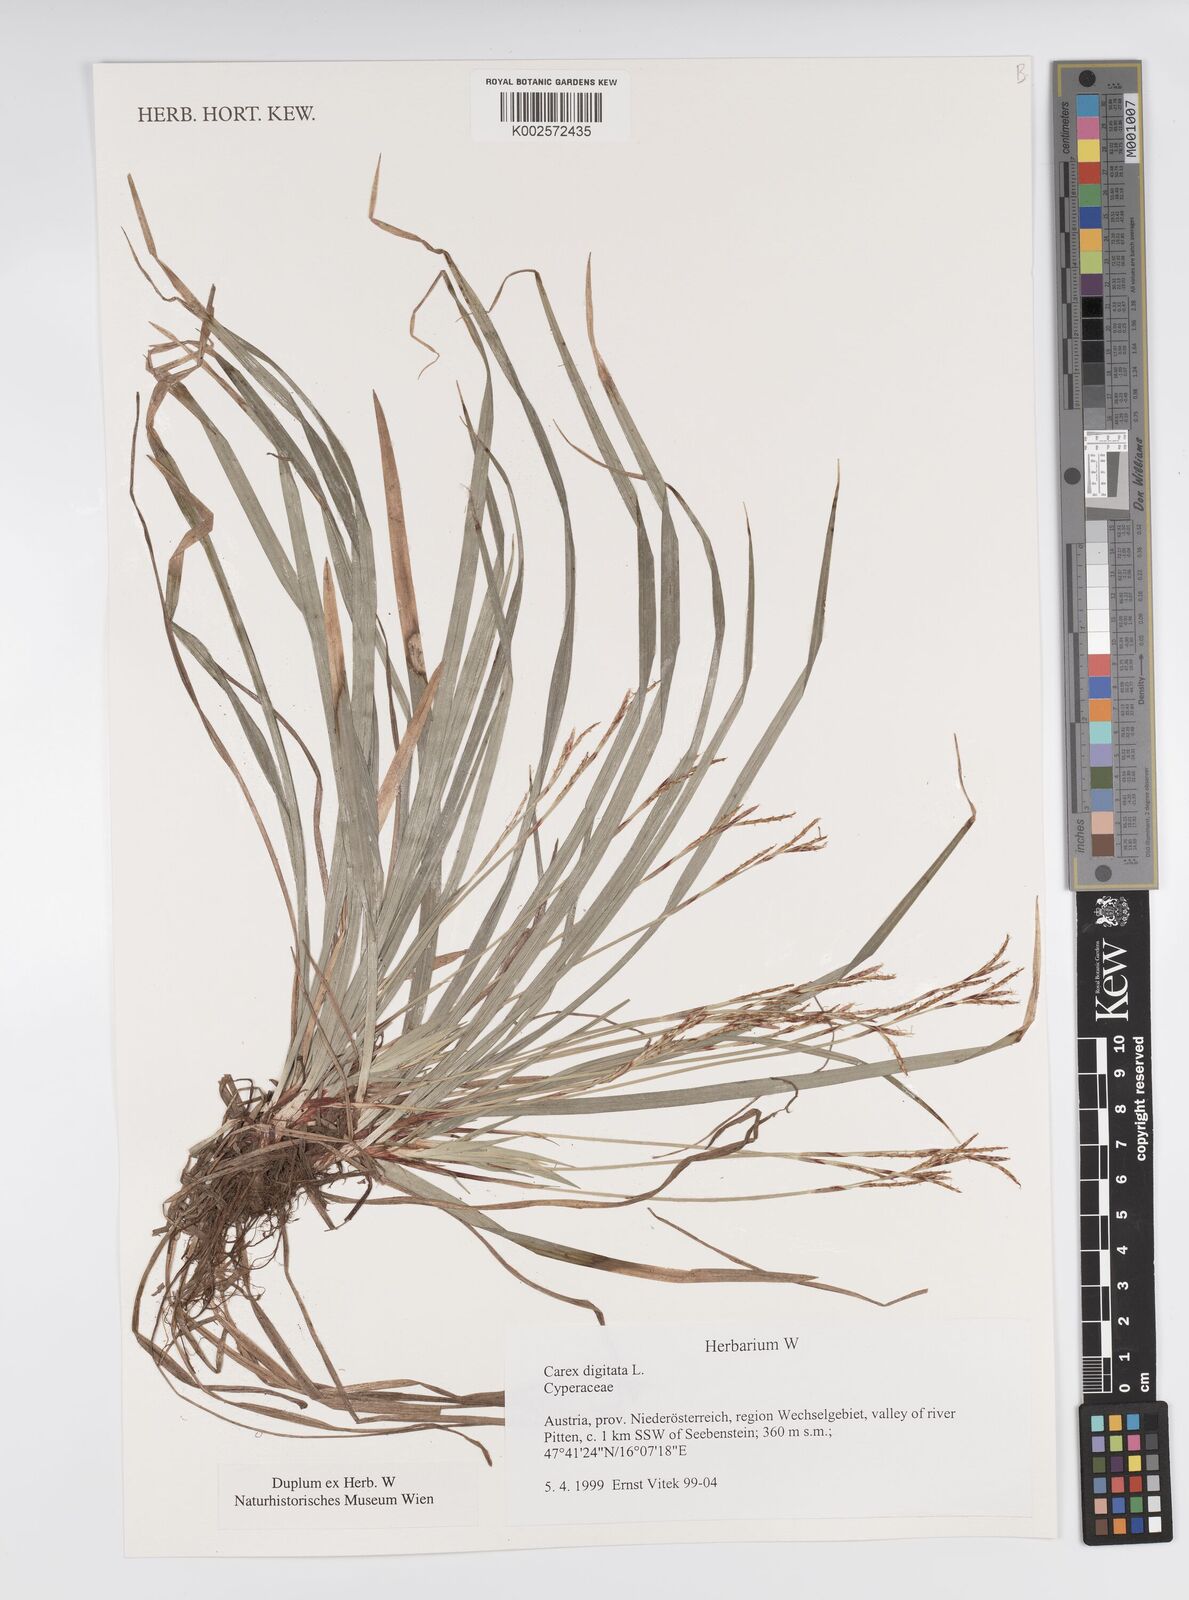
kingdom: Plantae
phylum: Tracheophyta
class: Liliopsida
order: Poales
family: Cyperaceae
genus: Carex
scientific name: Carex digitata
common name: Fingered sedge
